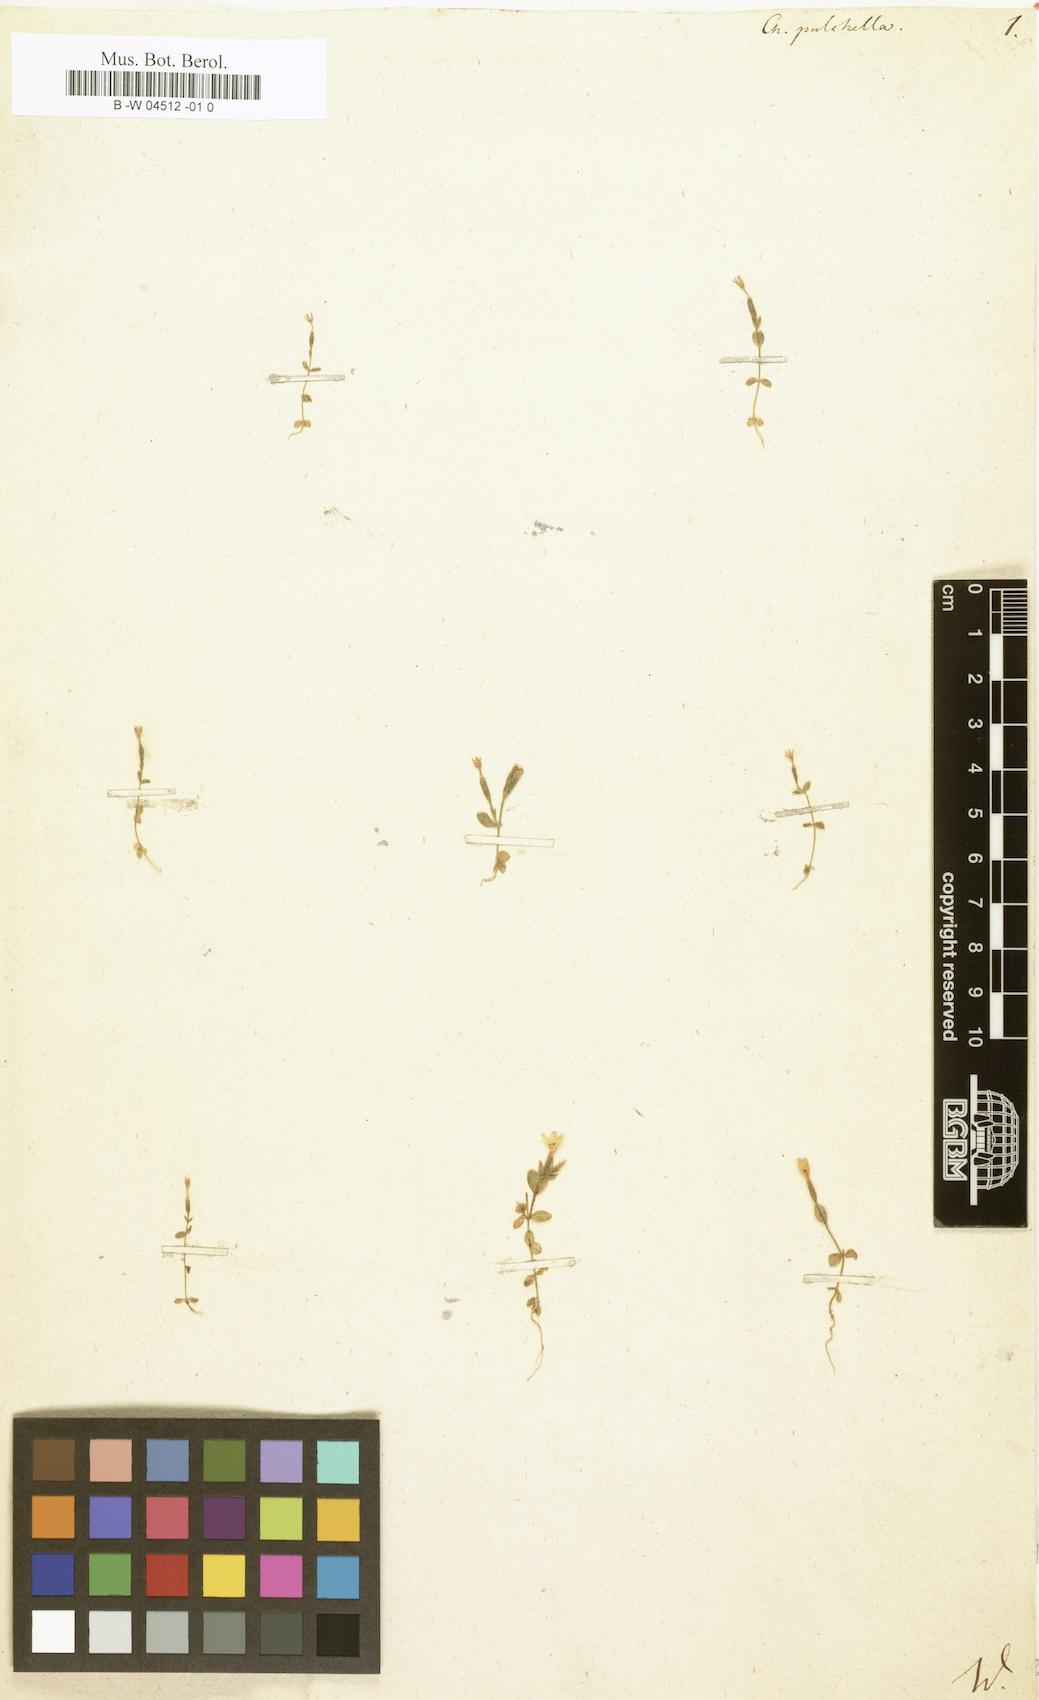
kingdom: Plantae
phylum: Tracheophyta
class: Magnoliopsida
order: Gentianales
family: Gentianaceae
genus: Centaurium
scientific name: Centaurium pulchellum
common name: Lesser centaury
